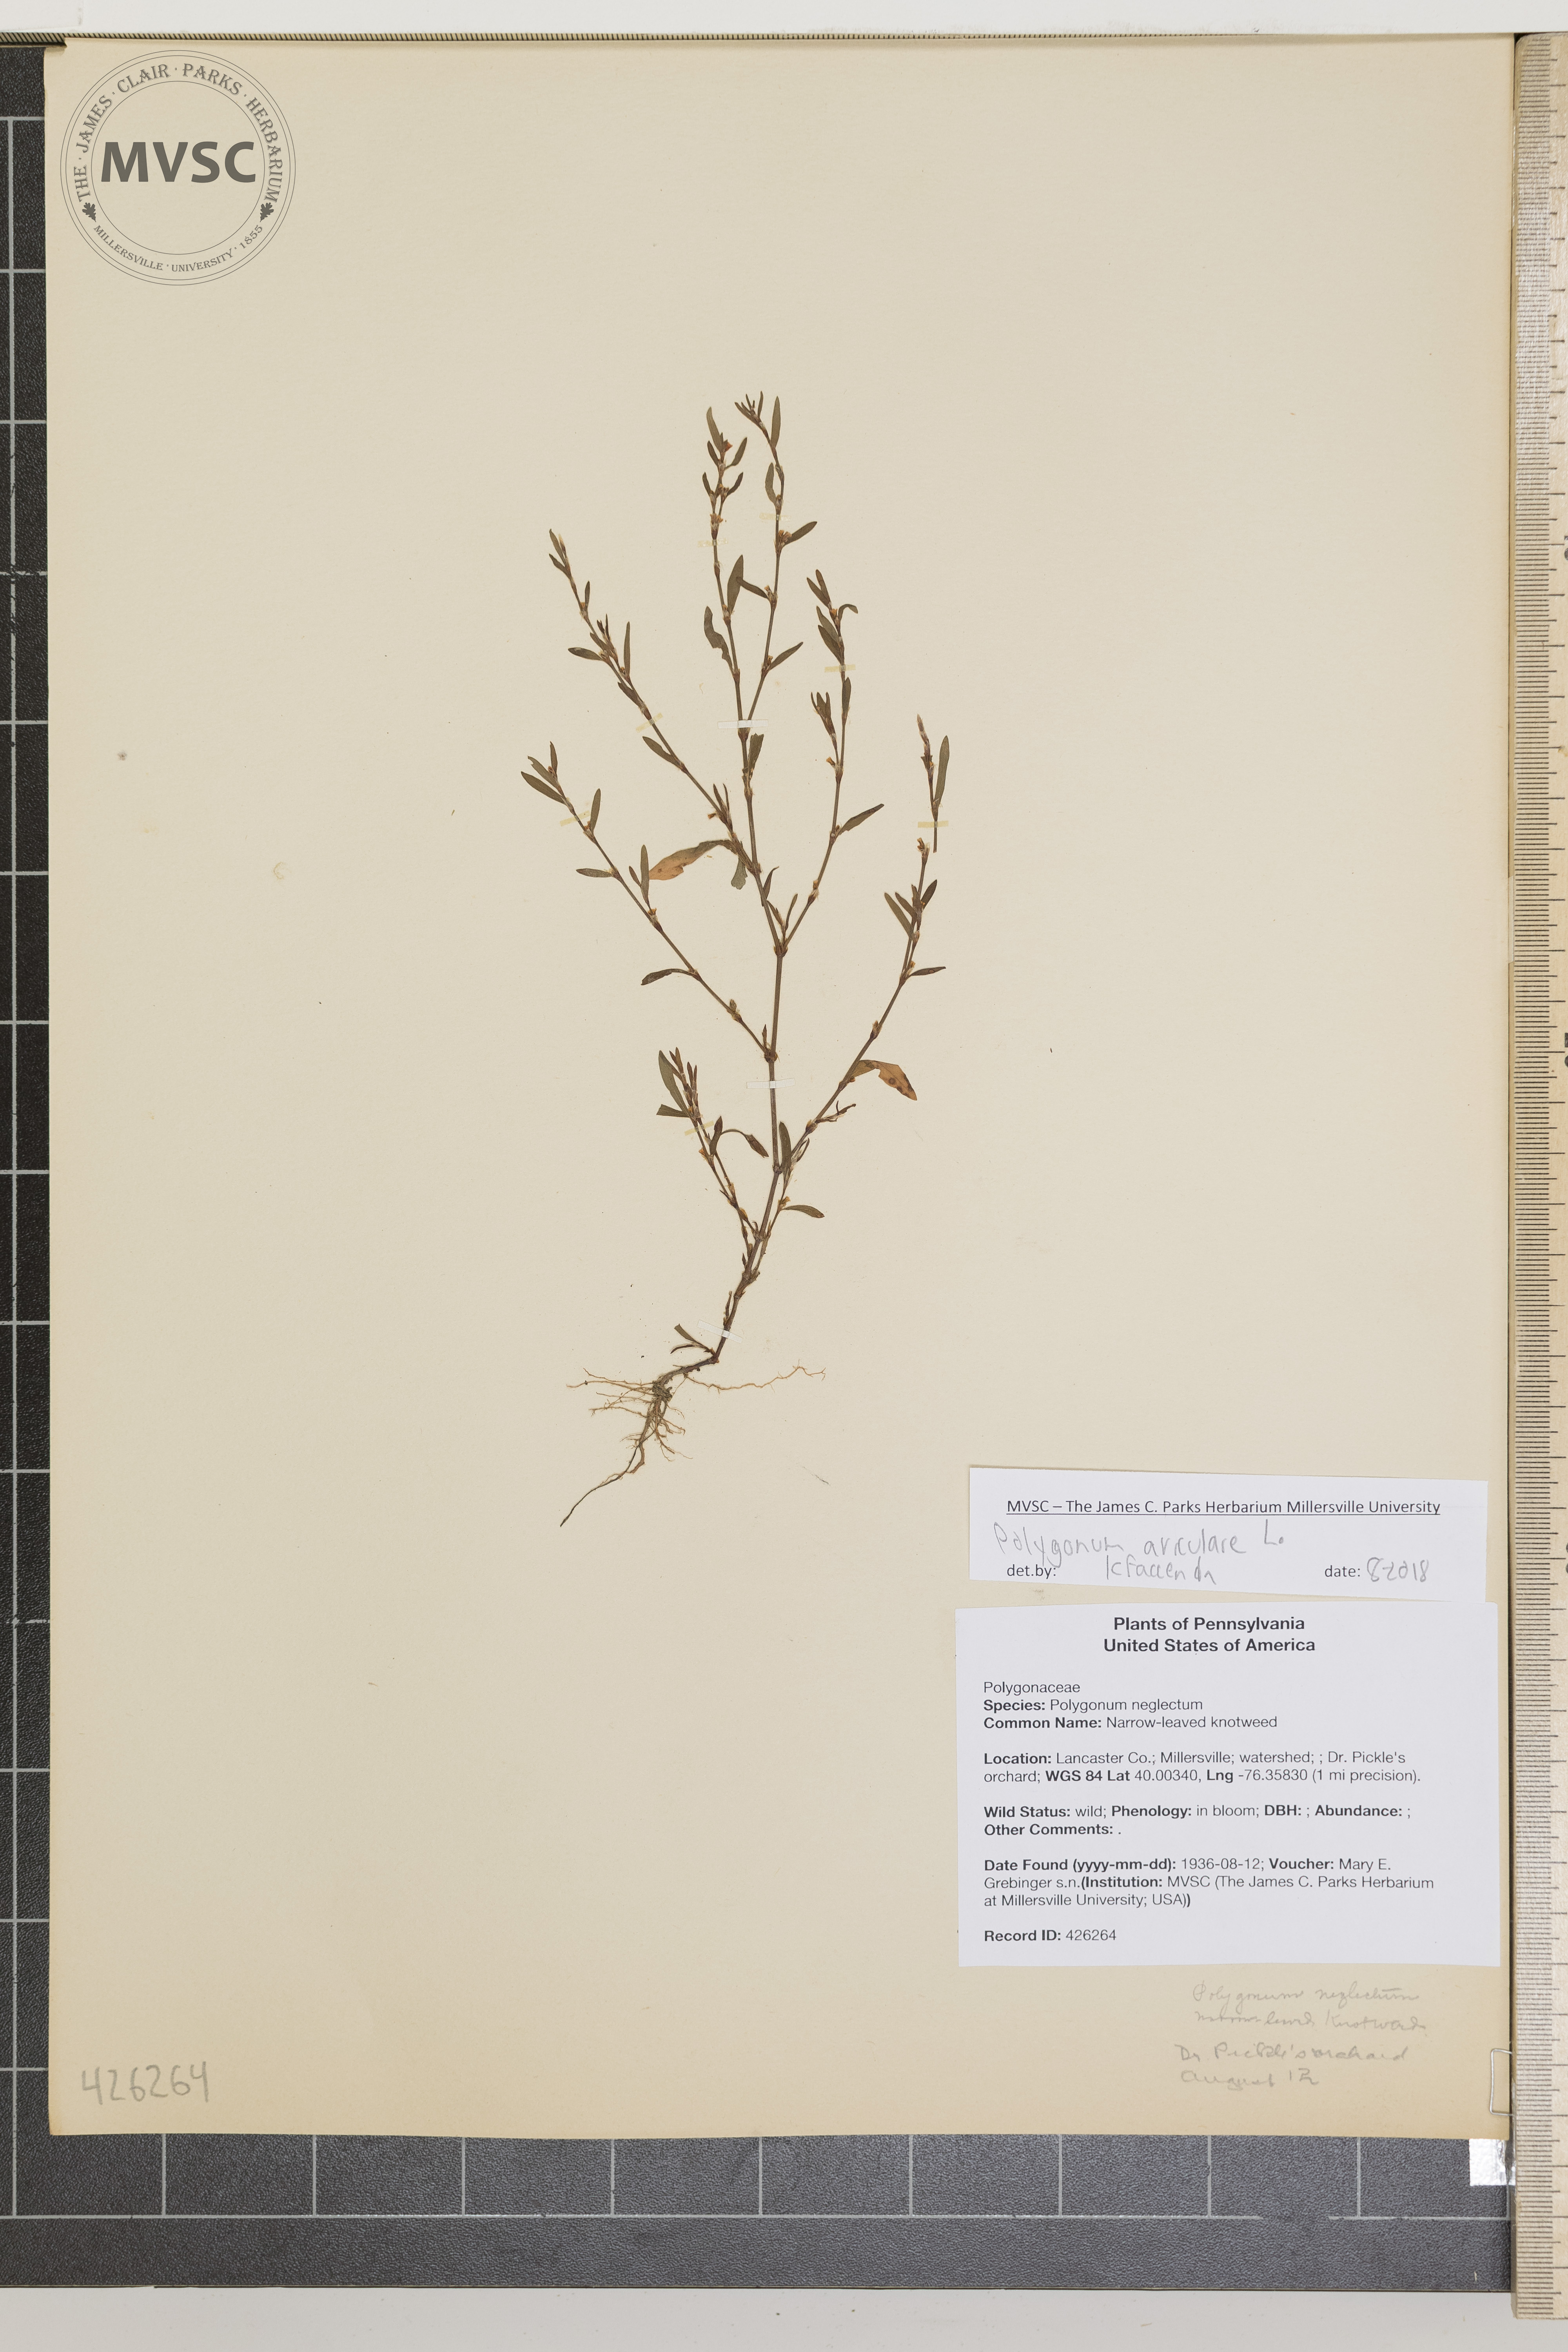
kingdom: Plantae
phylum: Tracheophyta
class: Magnoliopsida
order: Caryophyllales
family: Polygonaceae
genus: Polygonum
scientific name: Polygonum aviculare
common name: Narrow-leaved knotweed
